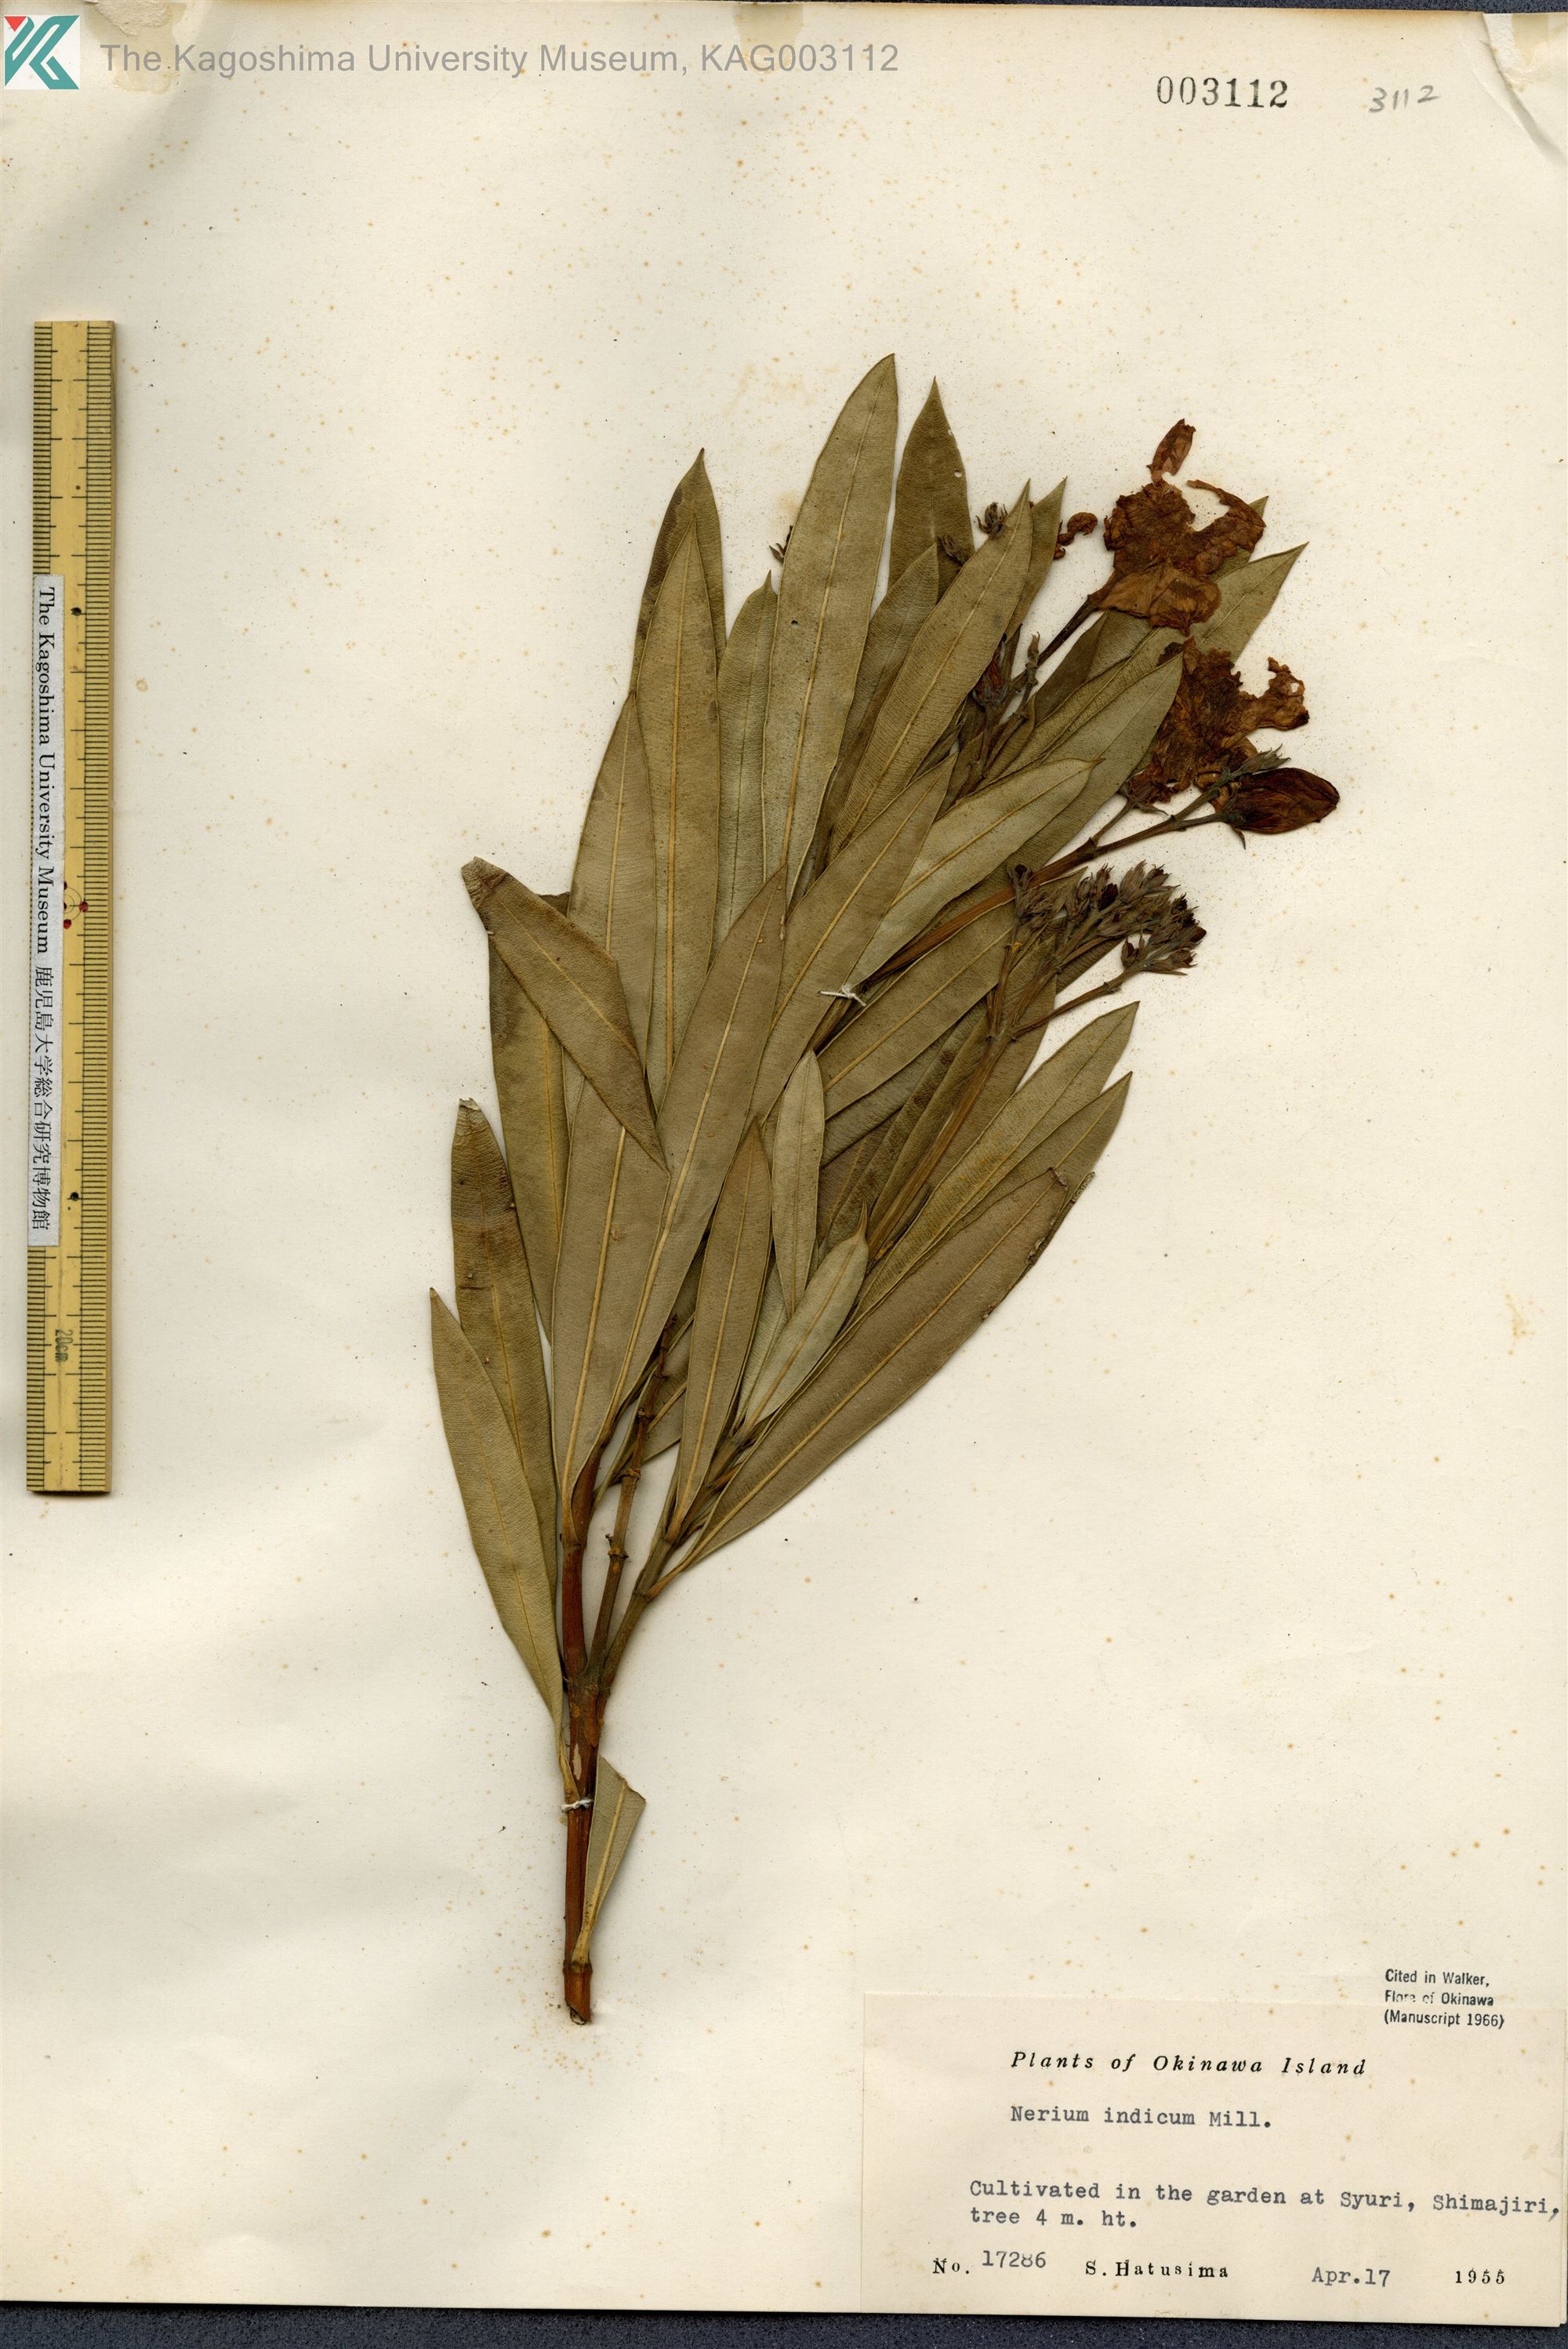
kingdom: Plantae
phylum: Tracheophyta
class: Magnoliopsida
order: Gentianales
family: Apocynaceae
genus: Nerium
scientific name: Nerium indicum
